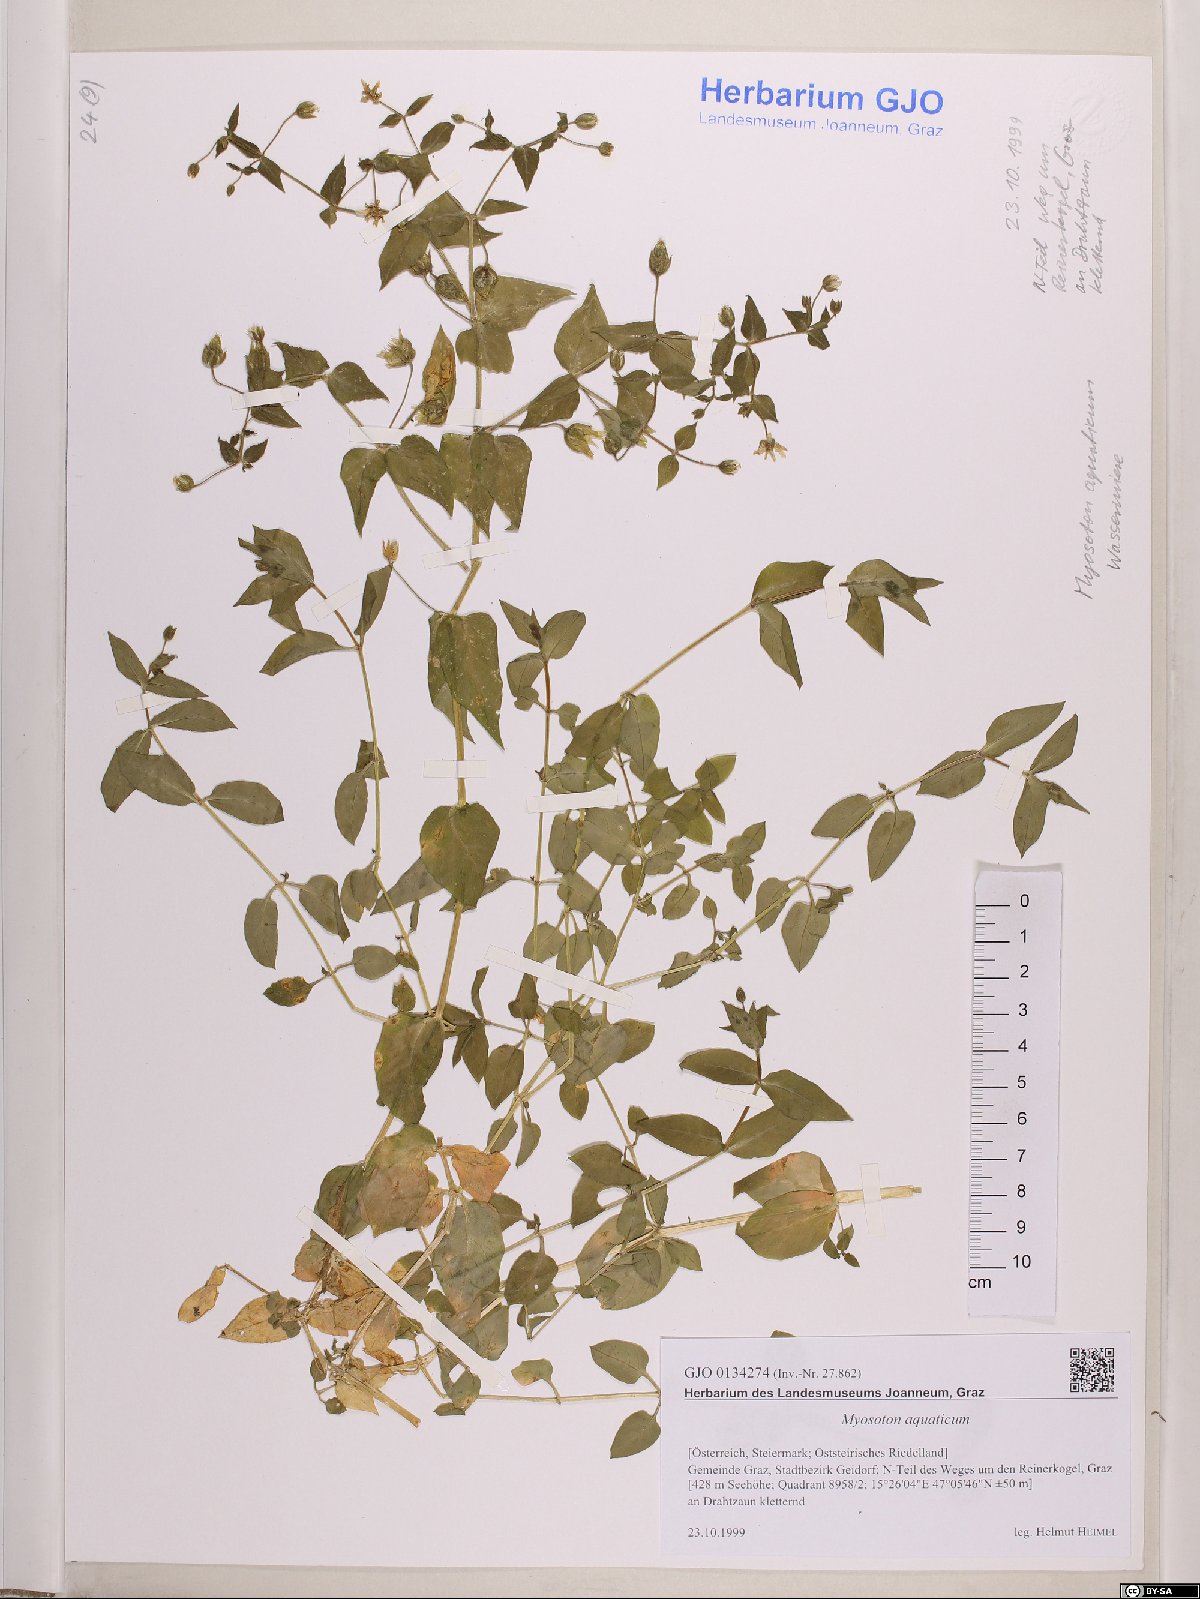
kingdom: Plantae
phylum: Tracheophyta
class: Magnoliopsida
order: Caryophyllales
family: Caryophyllaceae
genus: Stellaria
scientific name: Stellaria aquatica
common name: Water chickweed
